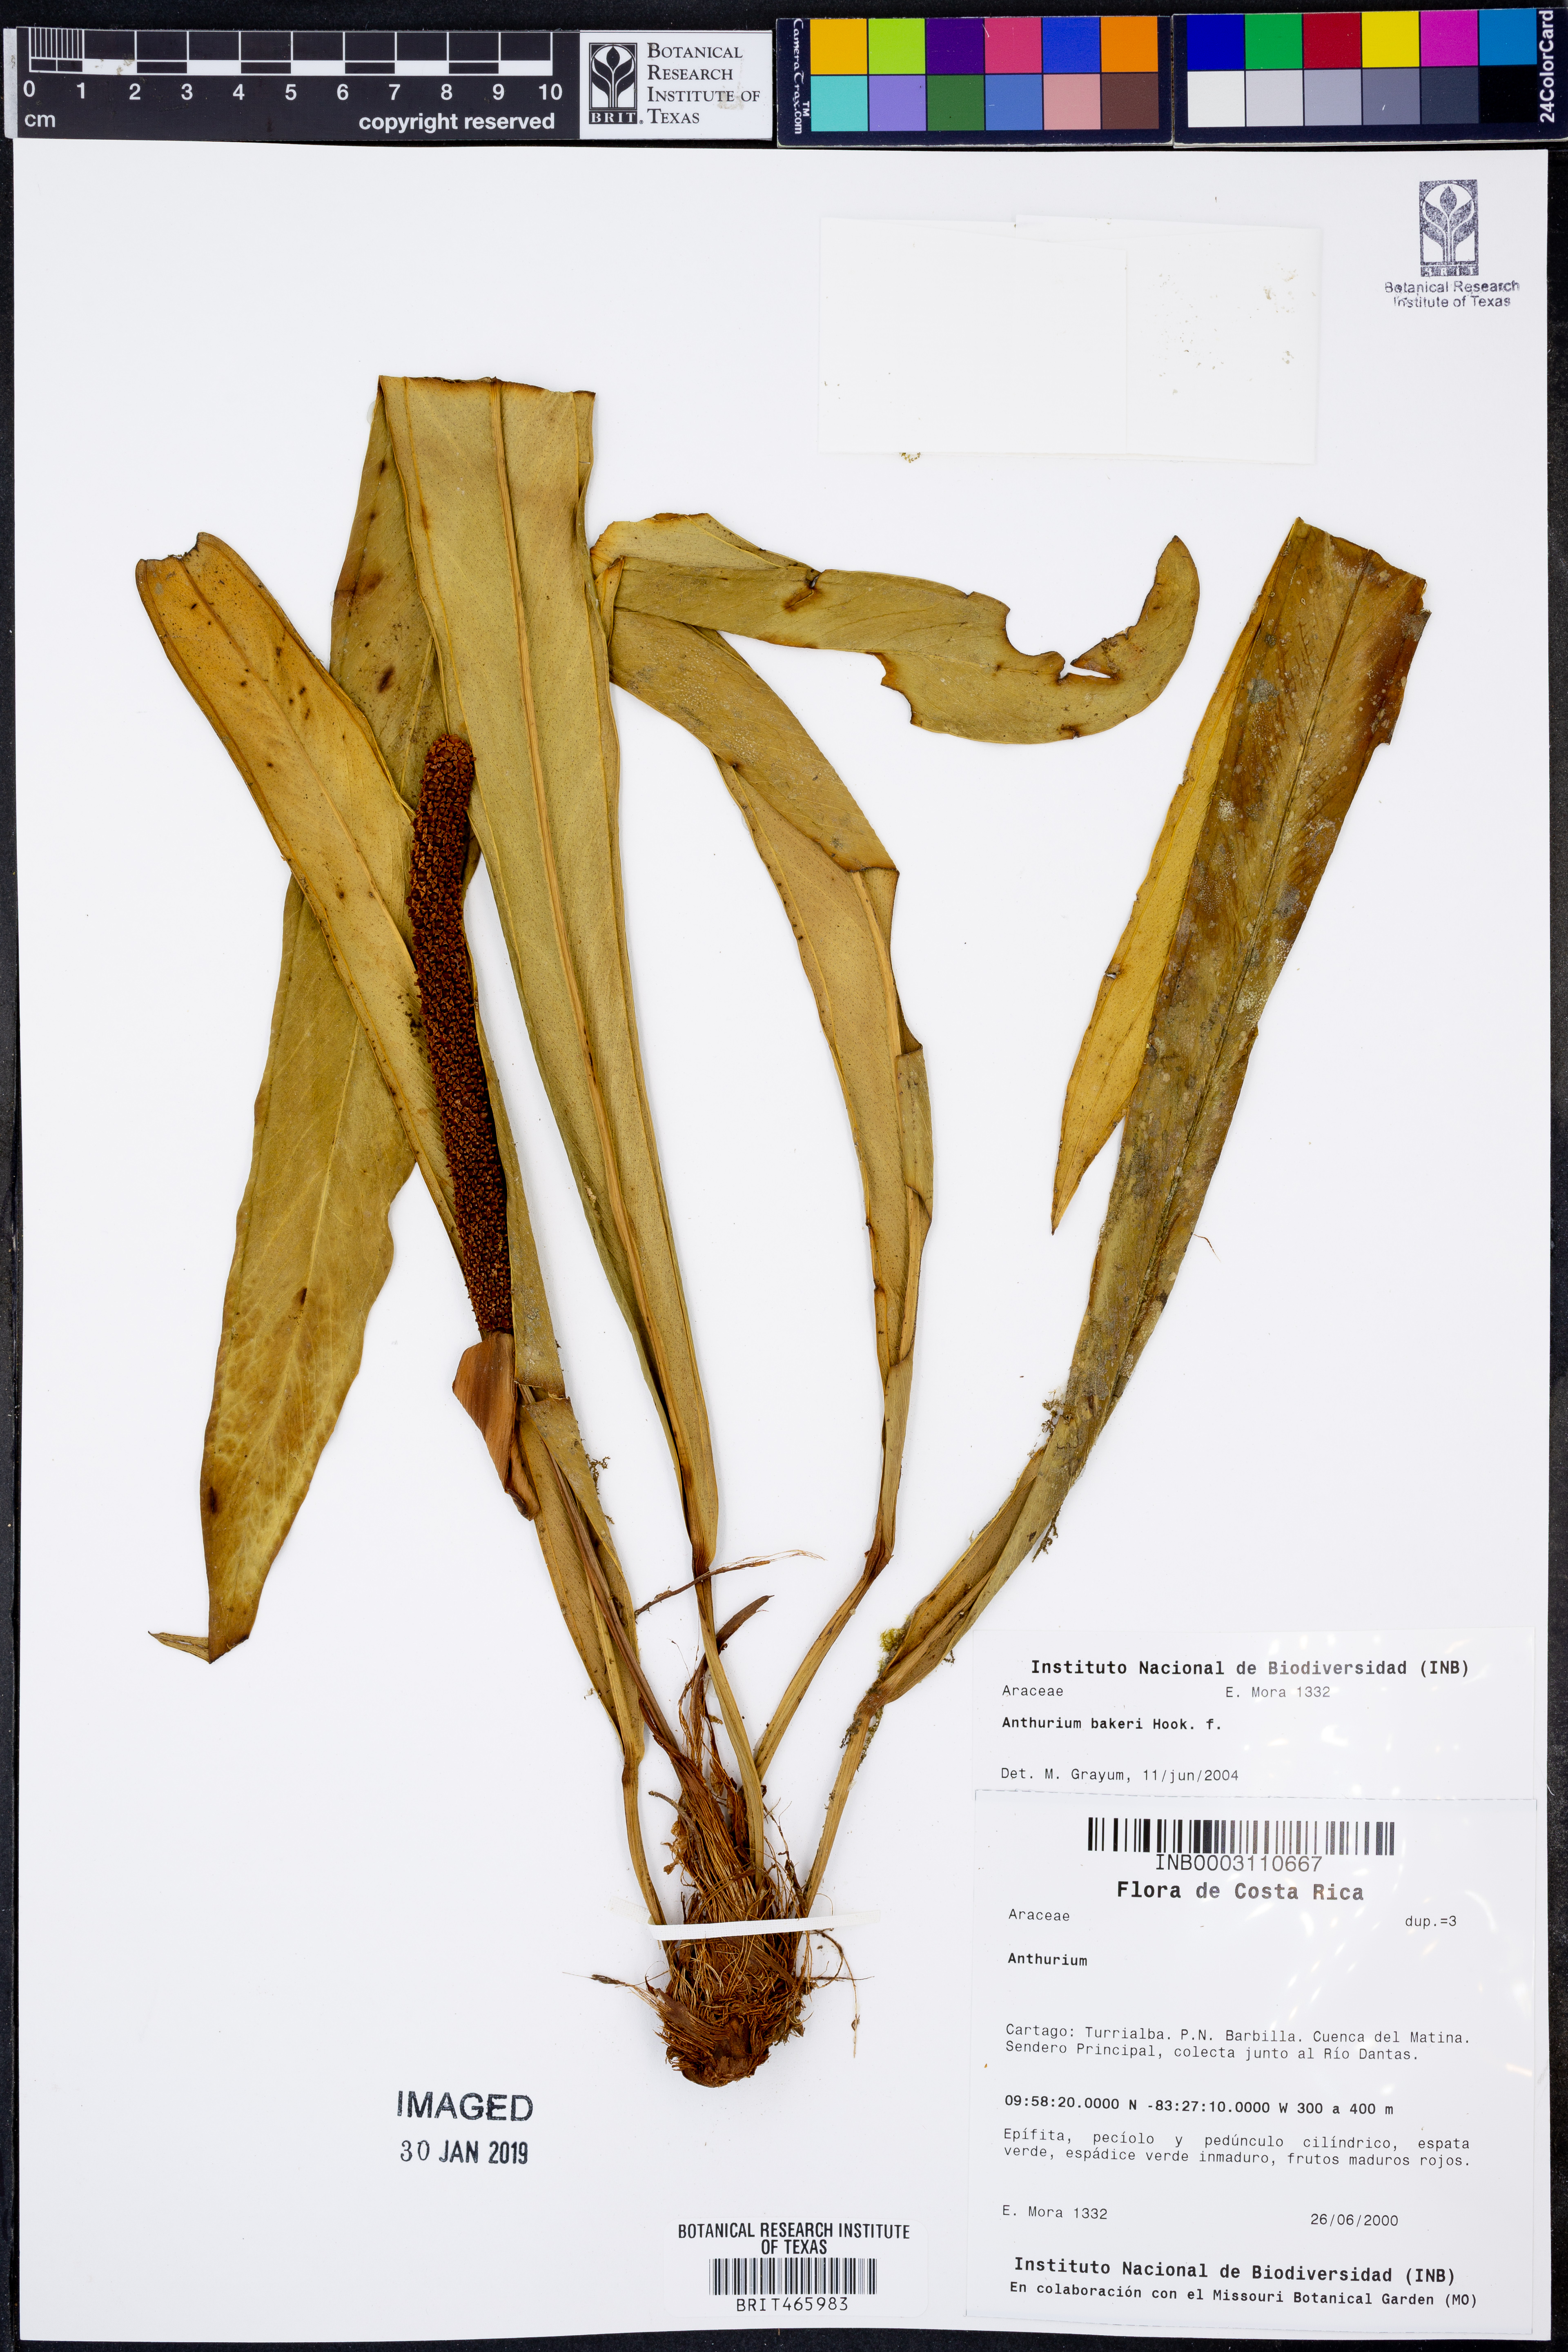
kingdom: Plantae
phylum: Tracheophyta
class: Liliopsida
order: Alismatales
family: Araceae
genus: Anthurium
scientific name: Anthurium bakeri
